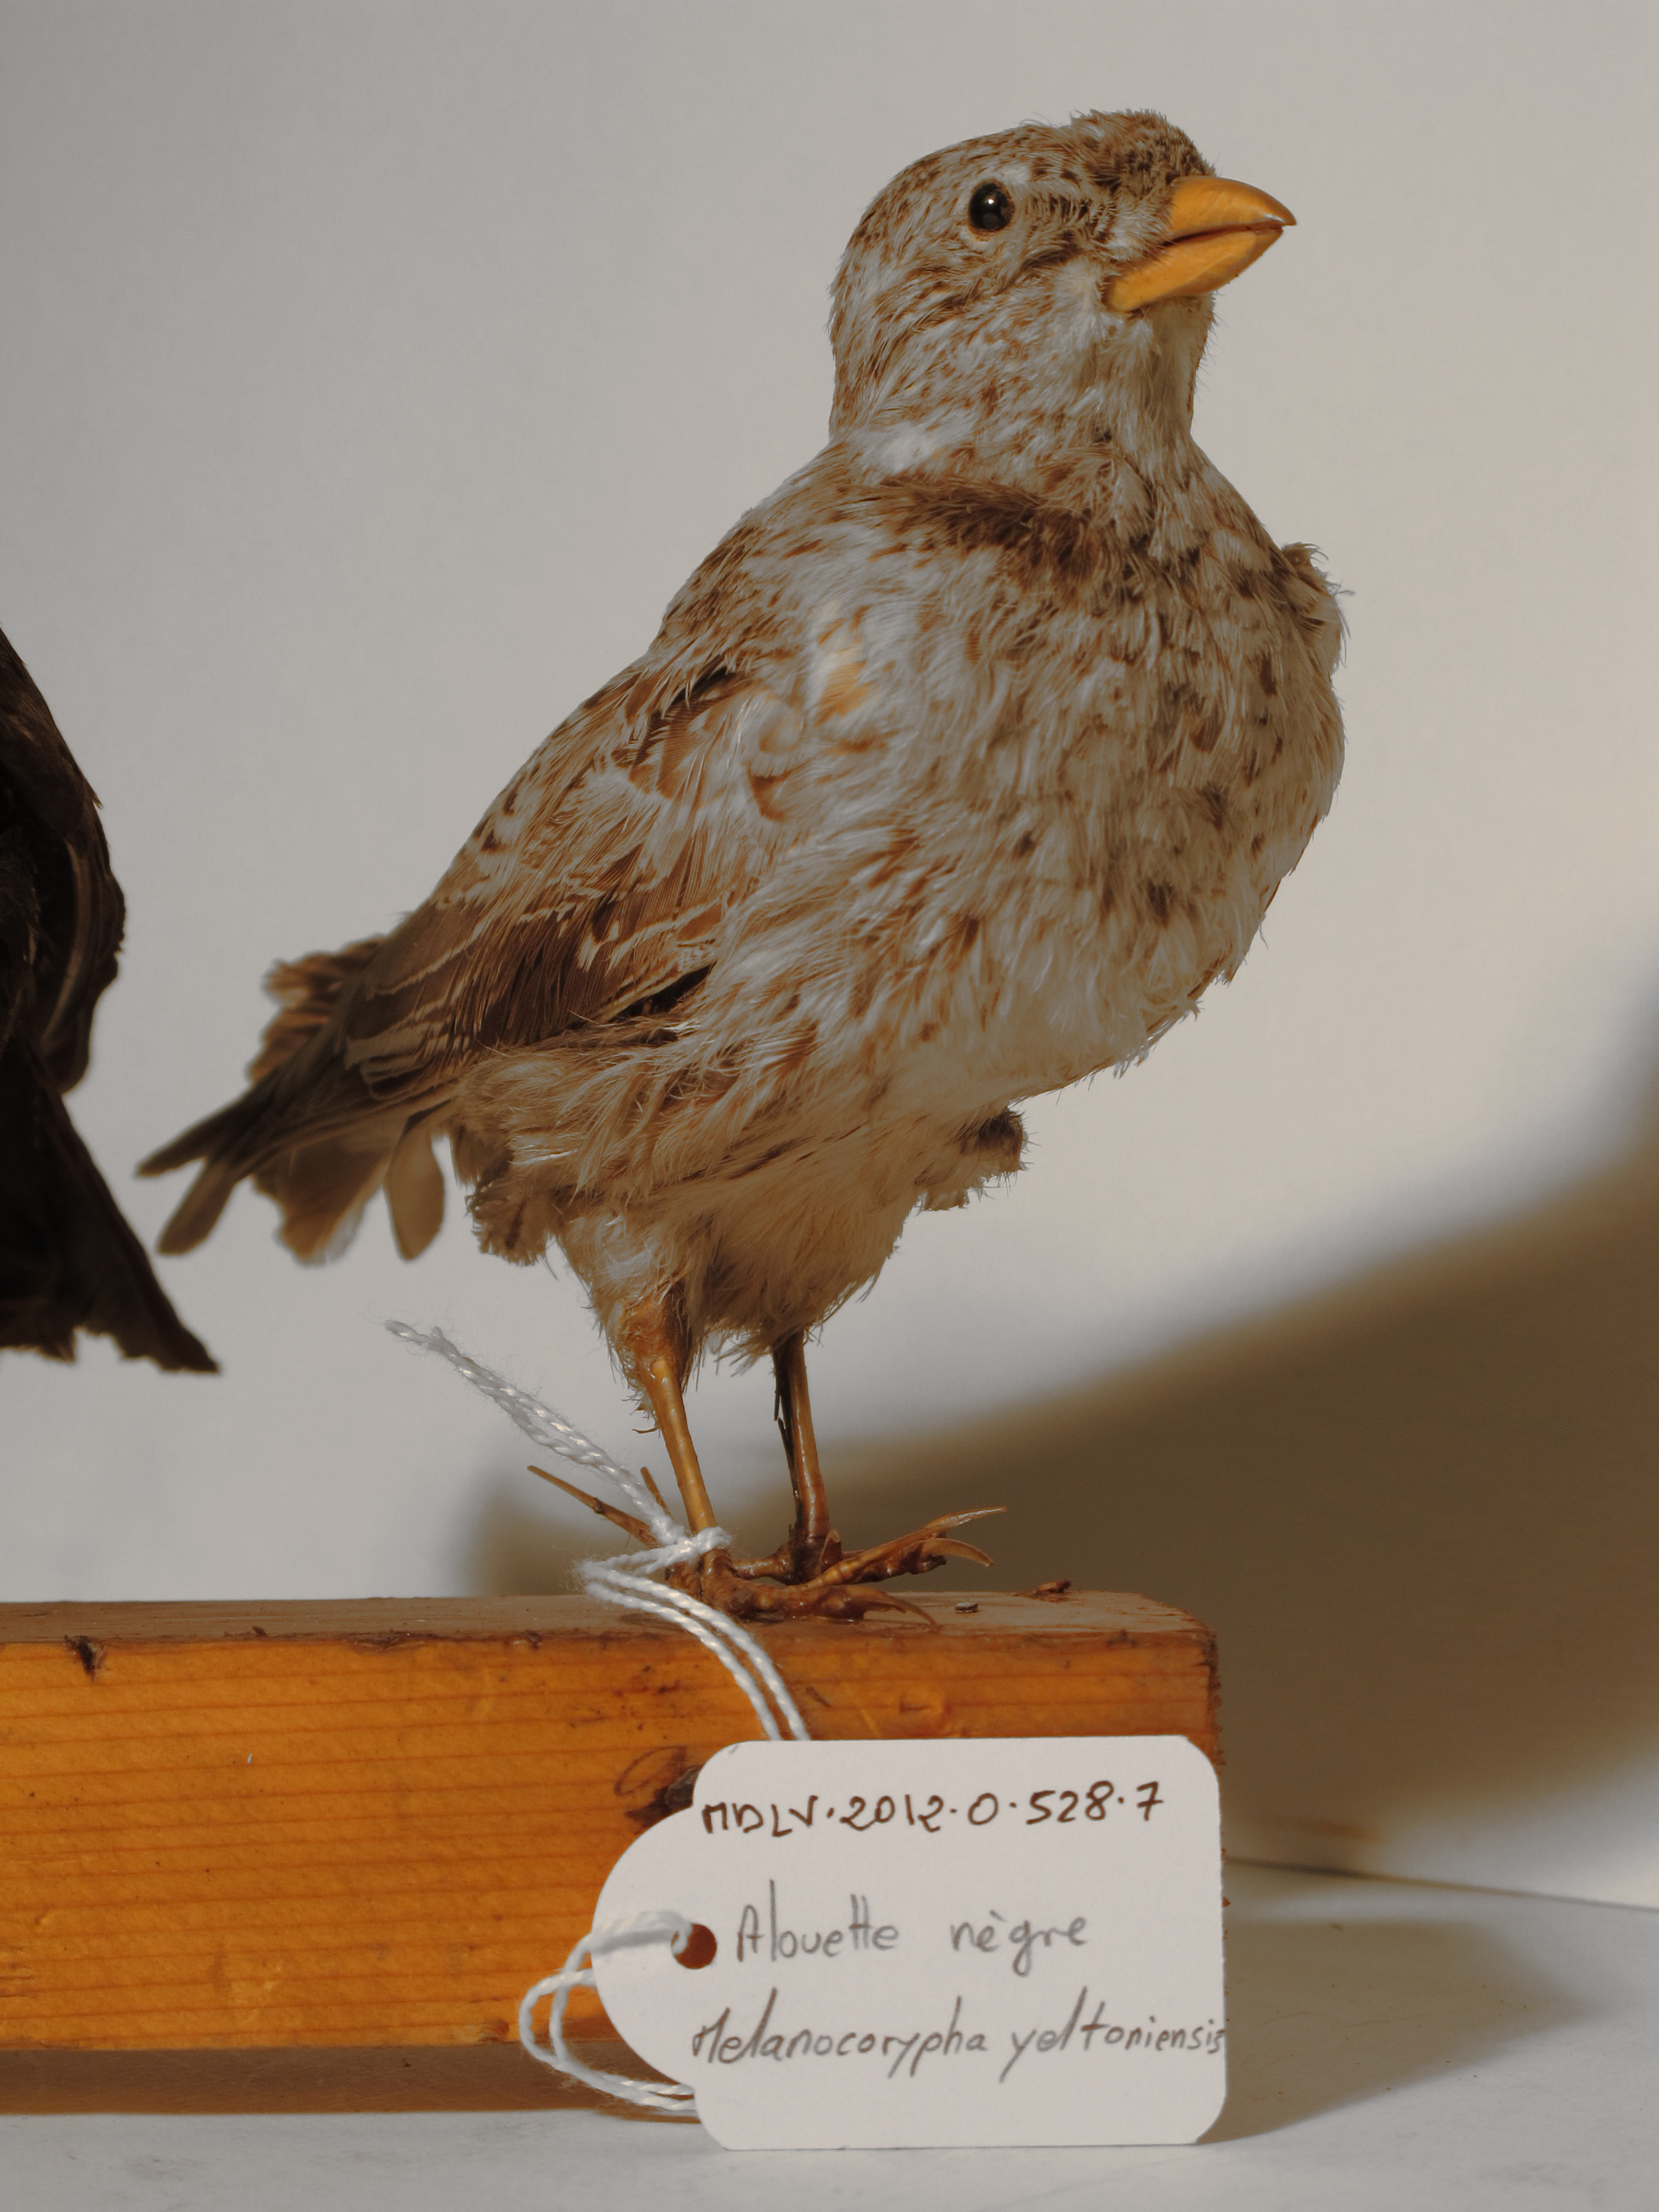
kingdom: Animalia
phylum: Chordata
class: Aves
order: Passeriformes
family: Alaudidae
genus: Melanocorypha
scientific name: Melanocorypha yeltoniensis
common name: Black Lark
